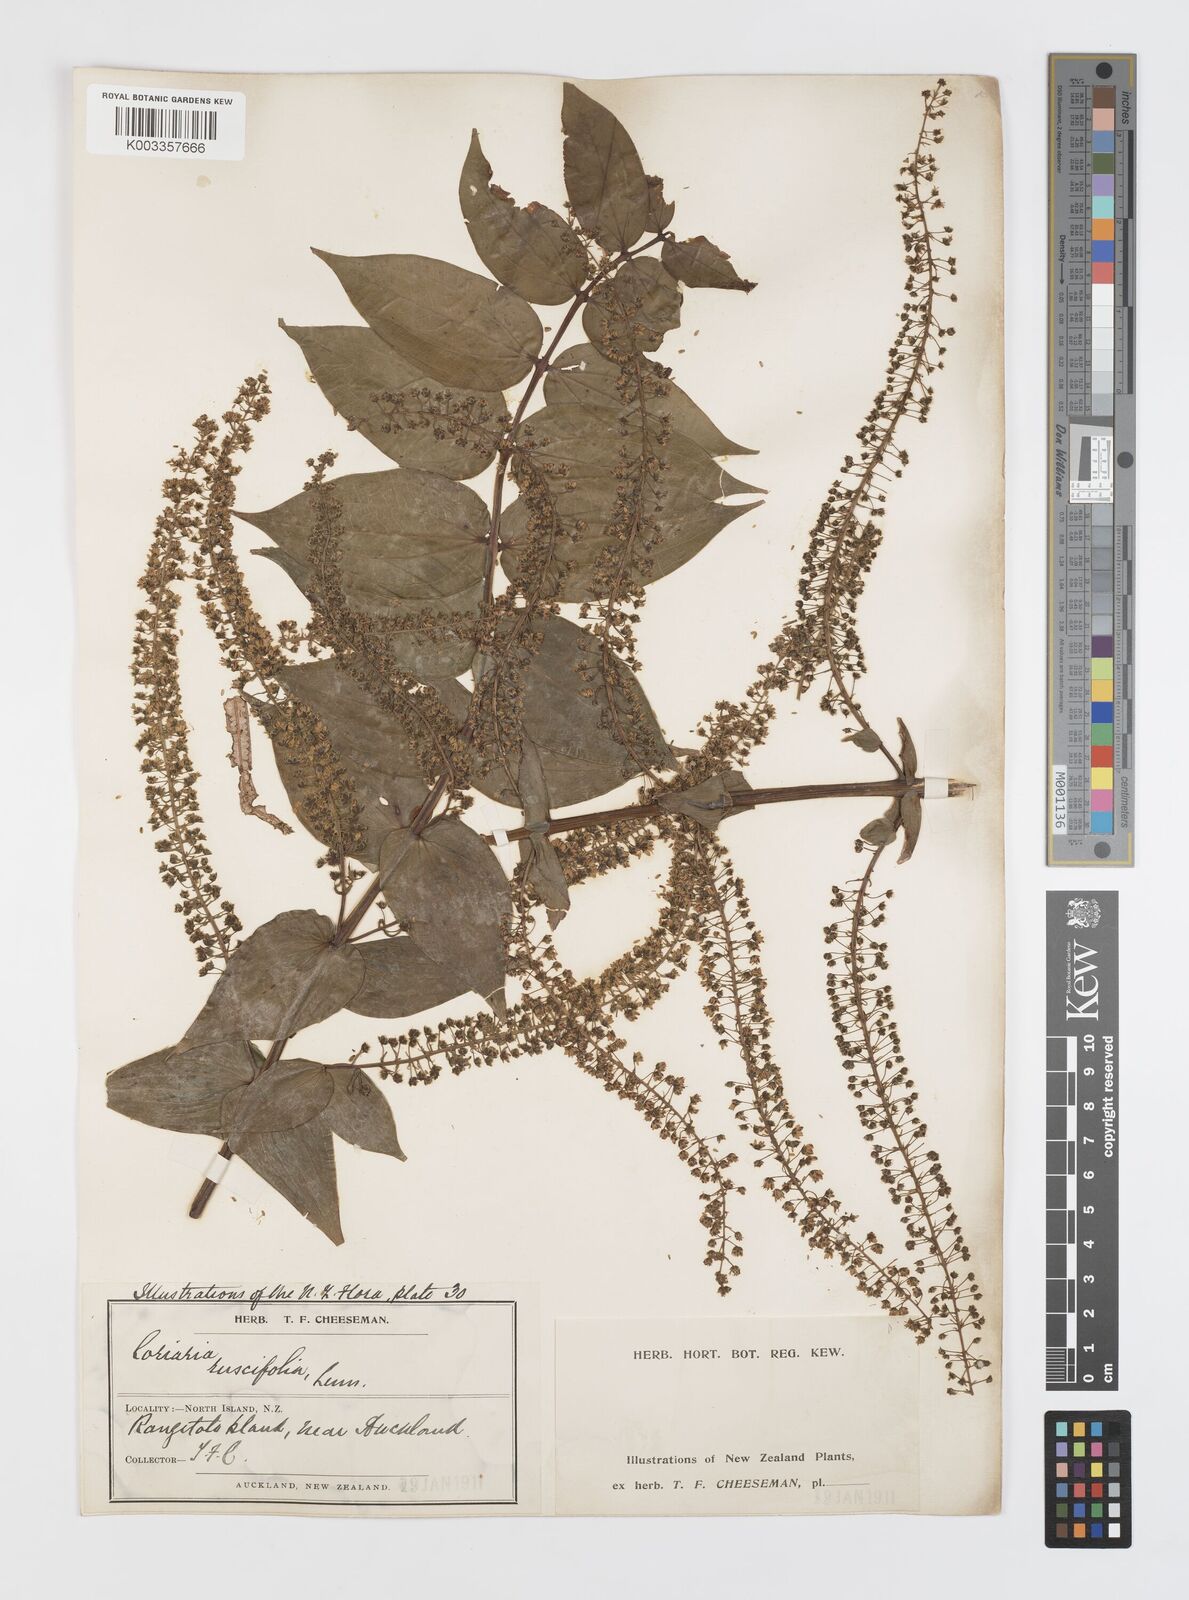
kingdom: Plantae
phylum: Tracheophyta
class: Magnoliopsida
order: Cucurbitales
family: Coriariaceae
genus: Coriaria
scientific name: Coriaria ruscifolia
